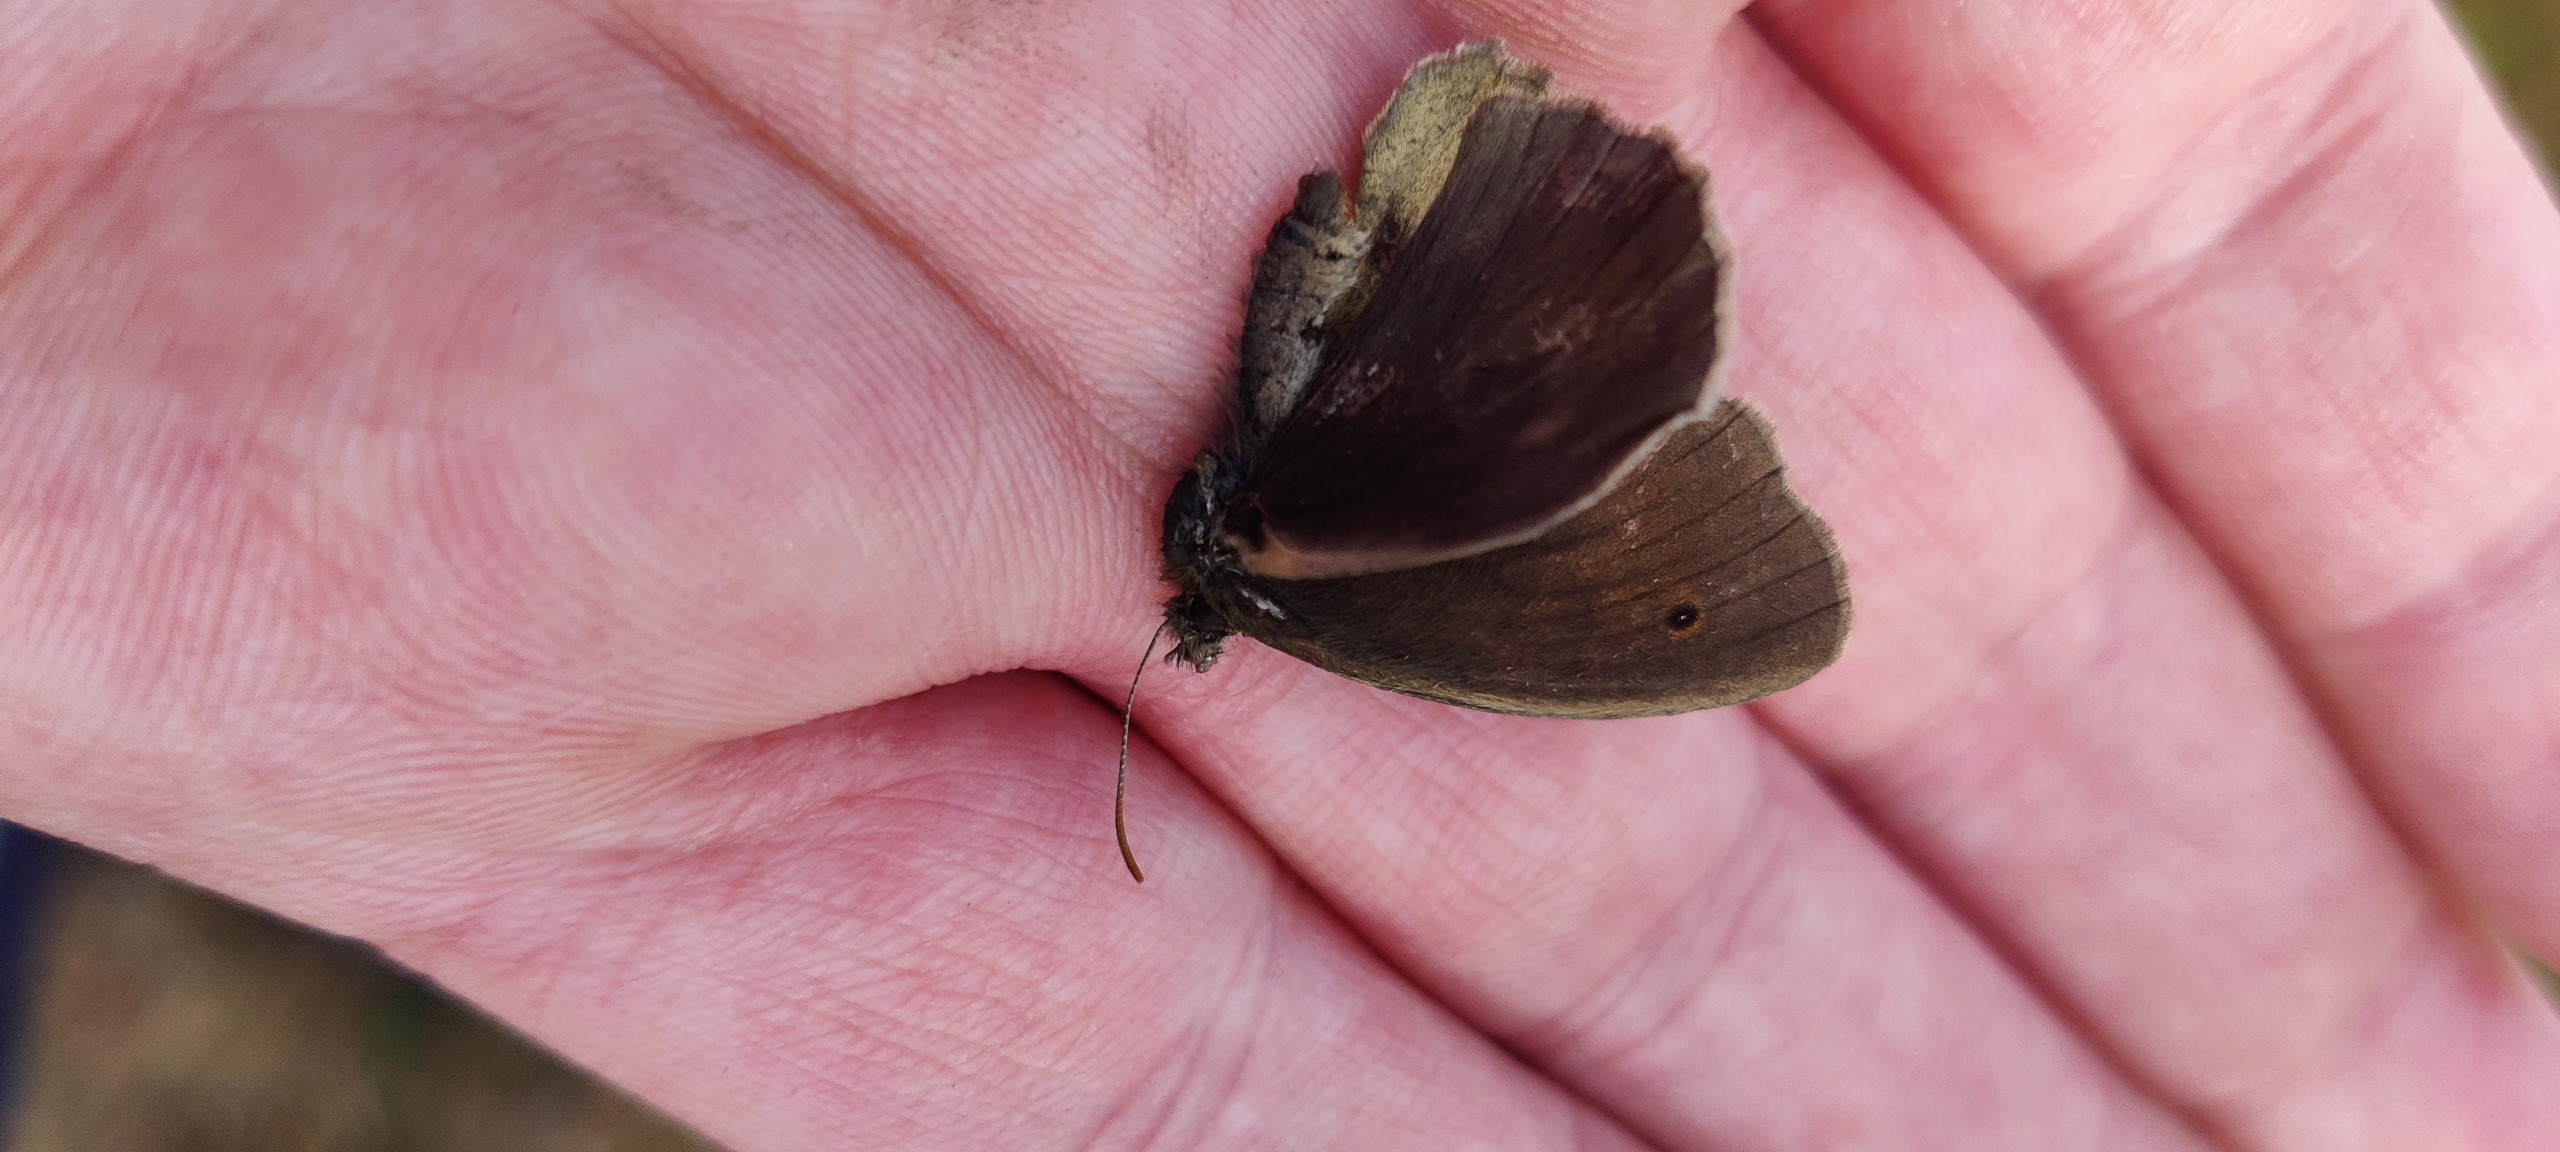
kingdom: Animalia
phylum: Arthropoda
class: Insecta
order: Lepidoptera
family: Nymphalidae
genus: Maniola
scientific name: Maniola jurtina
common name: Græsrandøje
